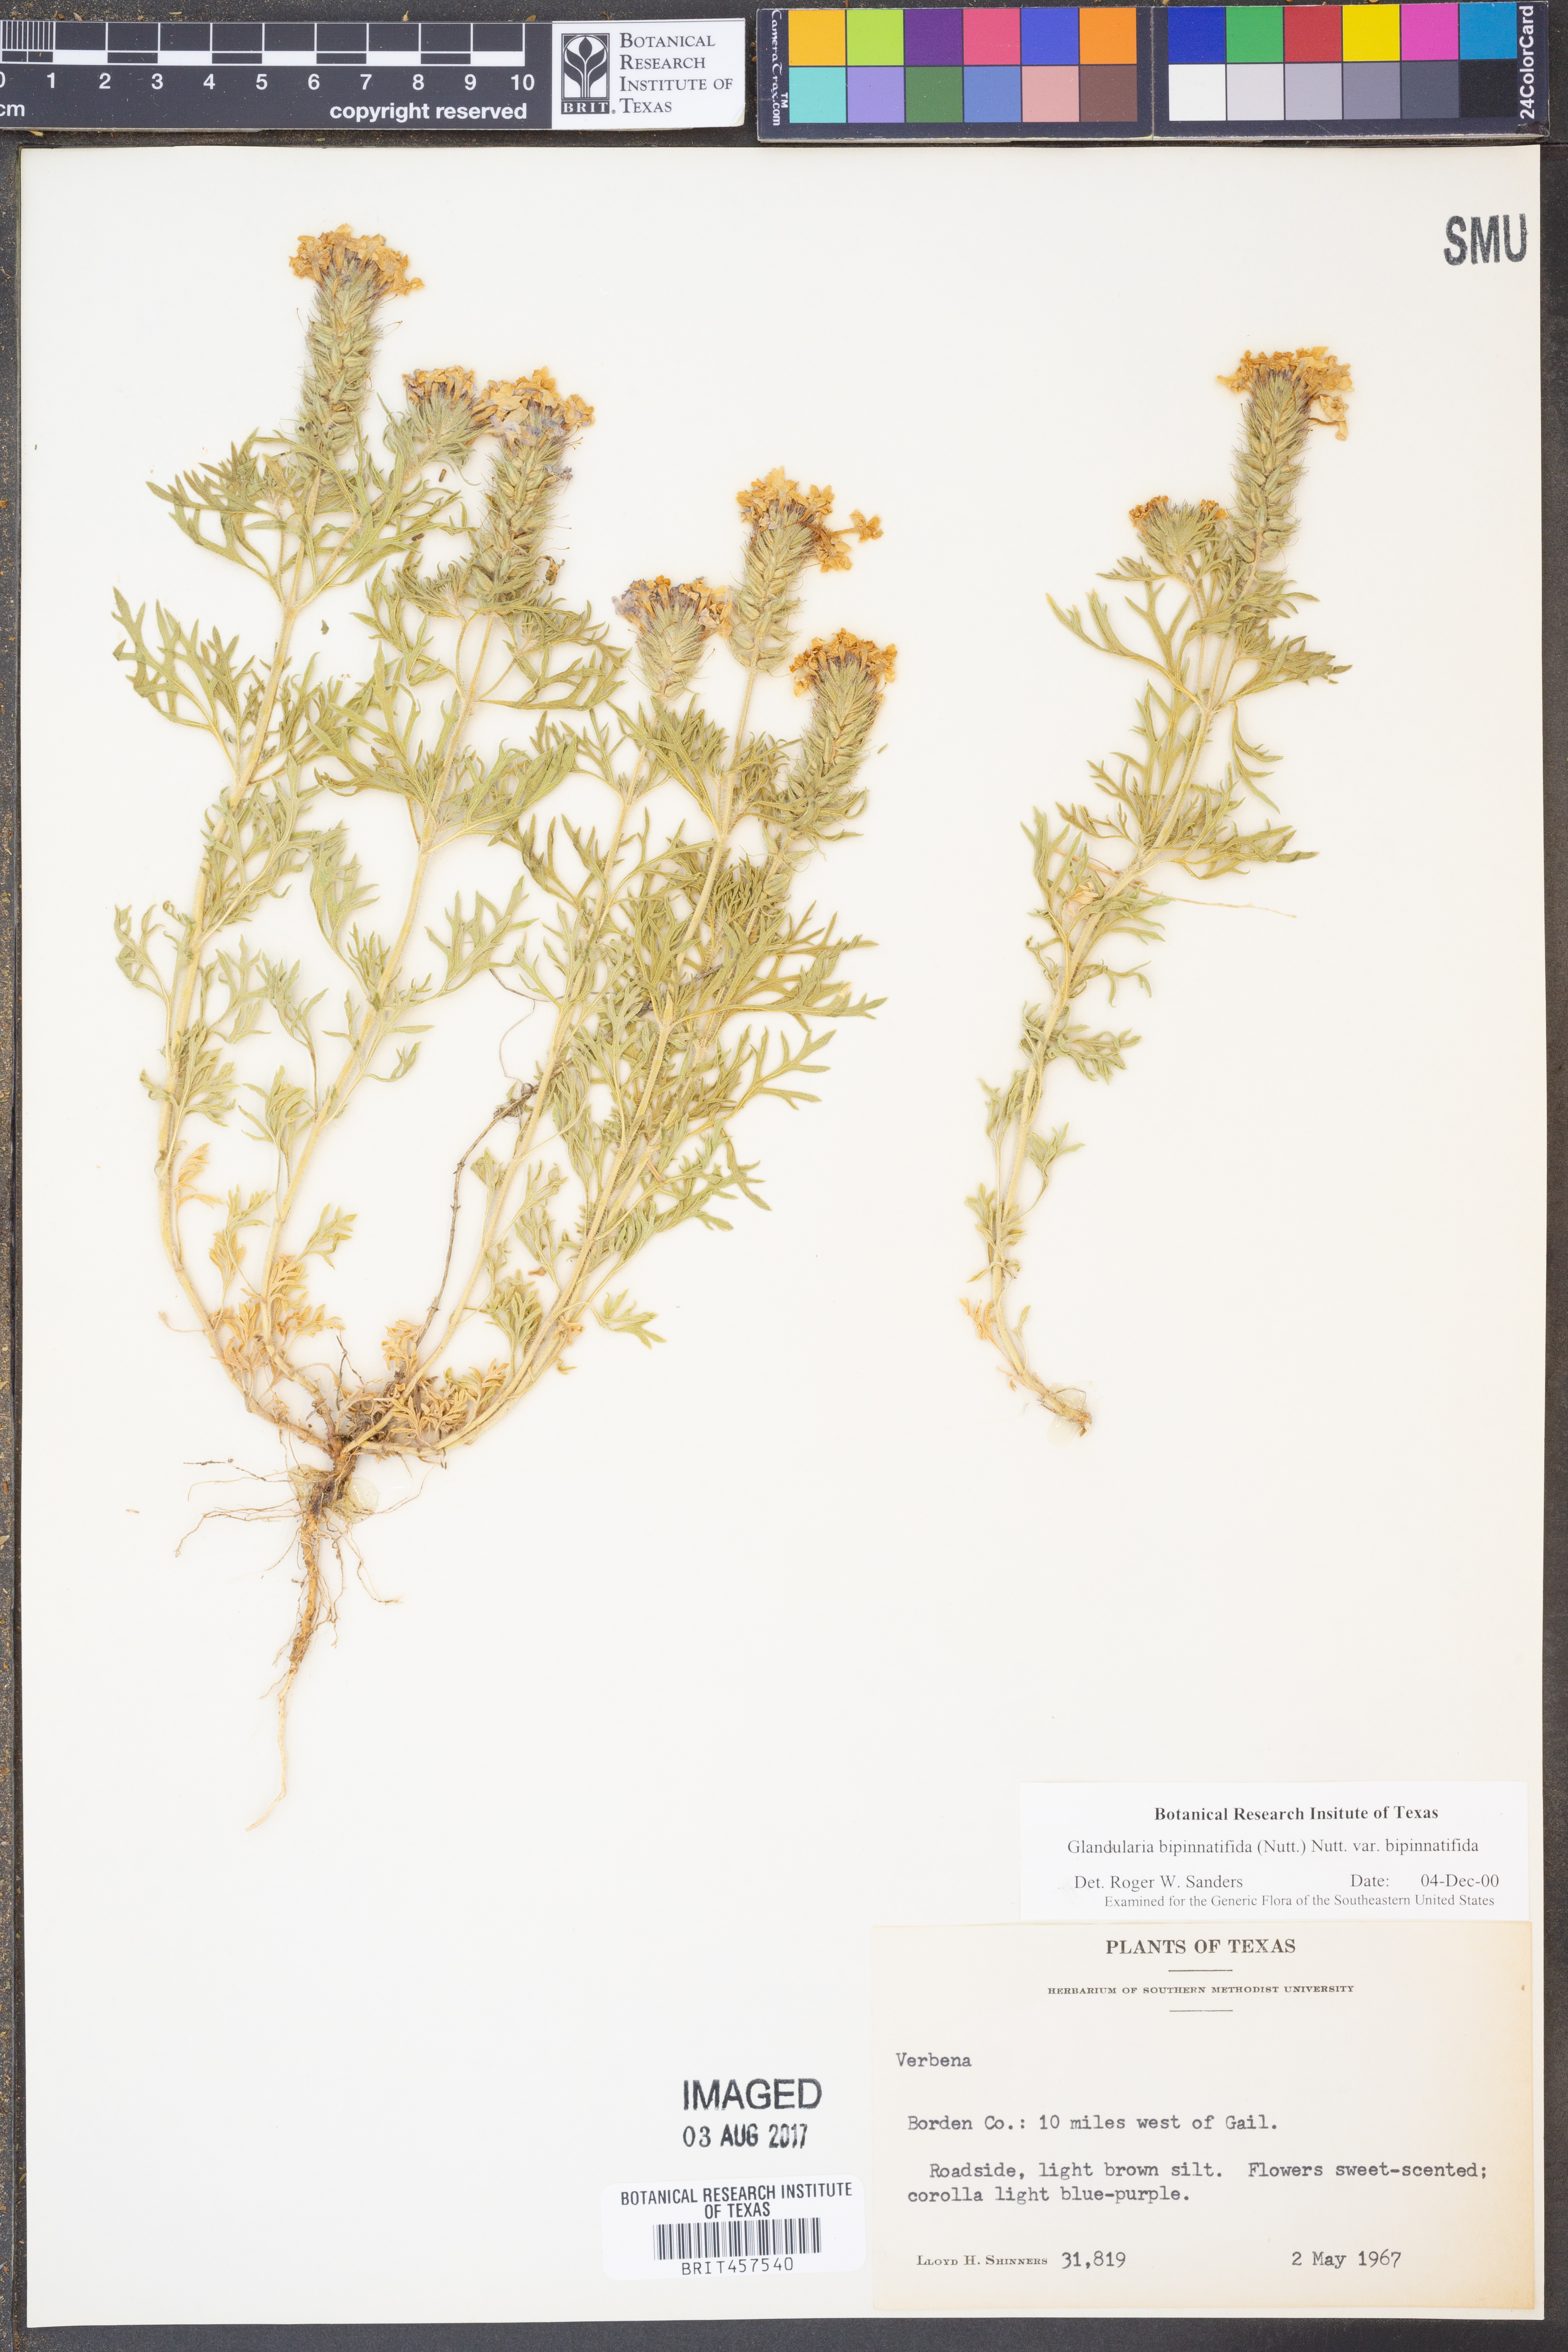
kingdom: Plantae
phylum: Tracheophyta
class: Magnoliopsida
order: Lamiales
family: Verbenaceae
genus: Verbena
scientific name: Verbena bipinnatifida
